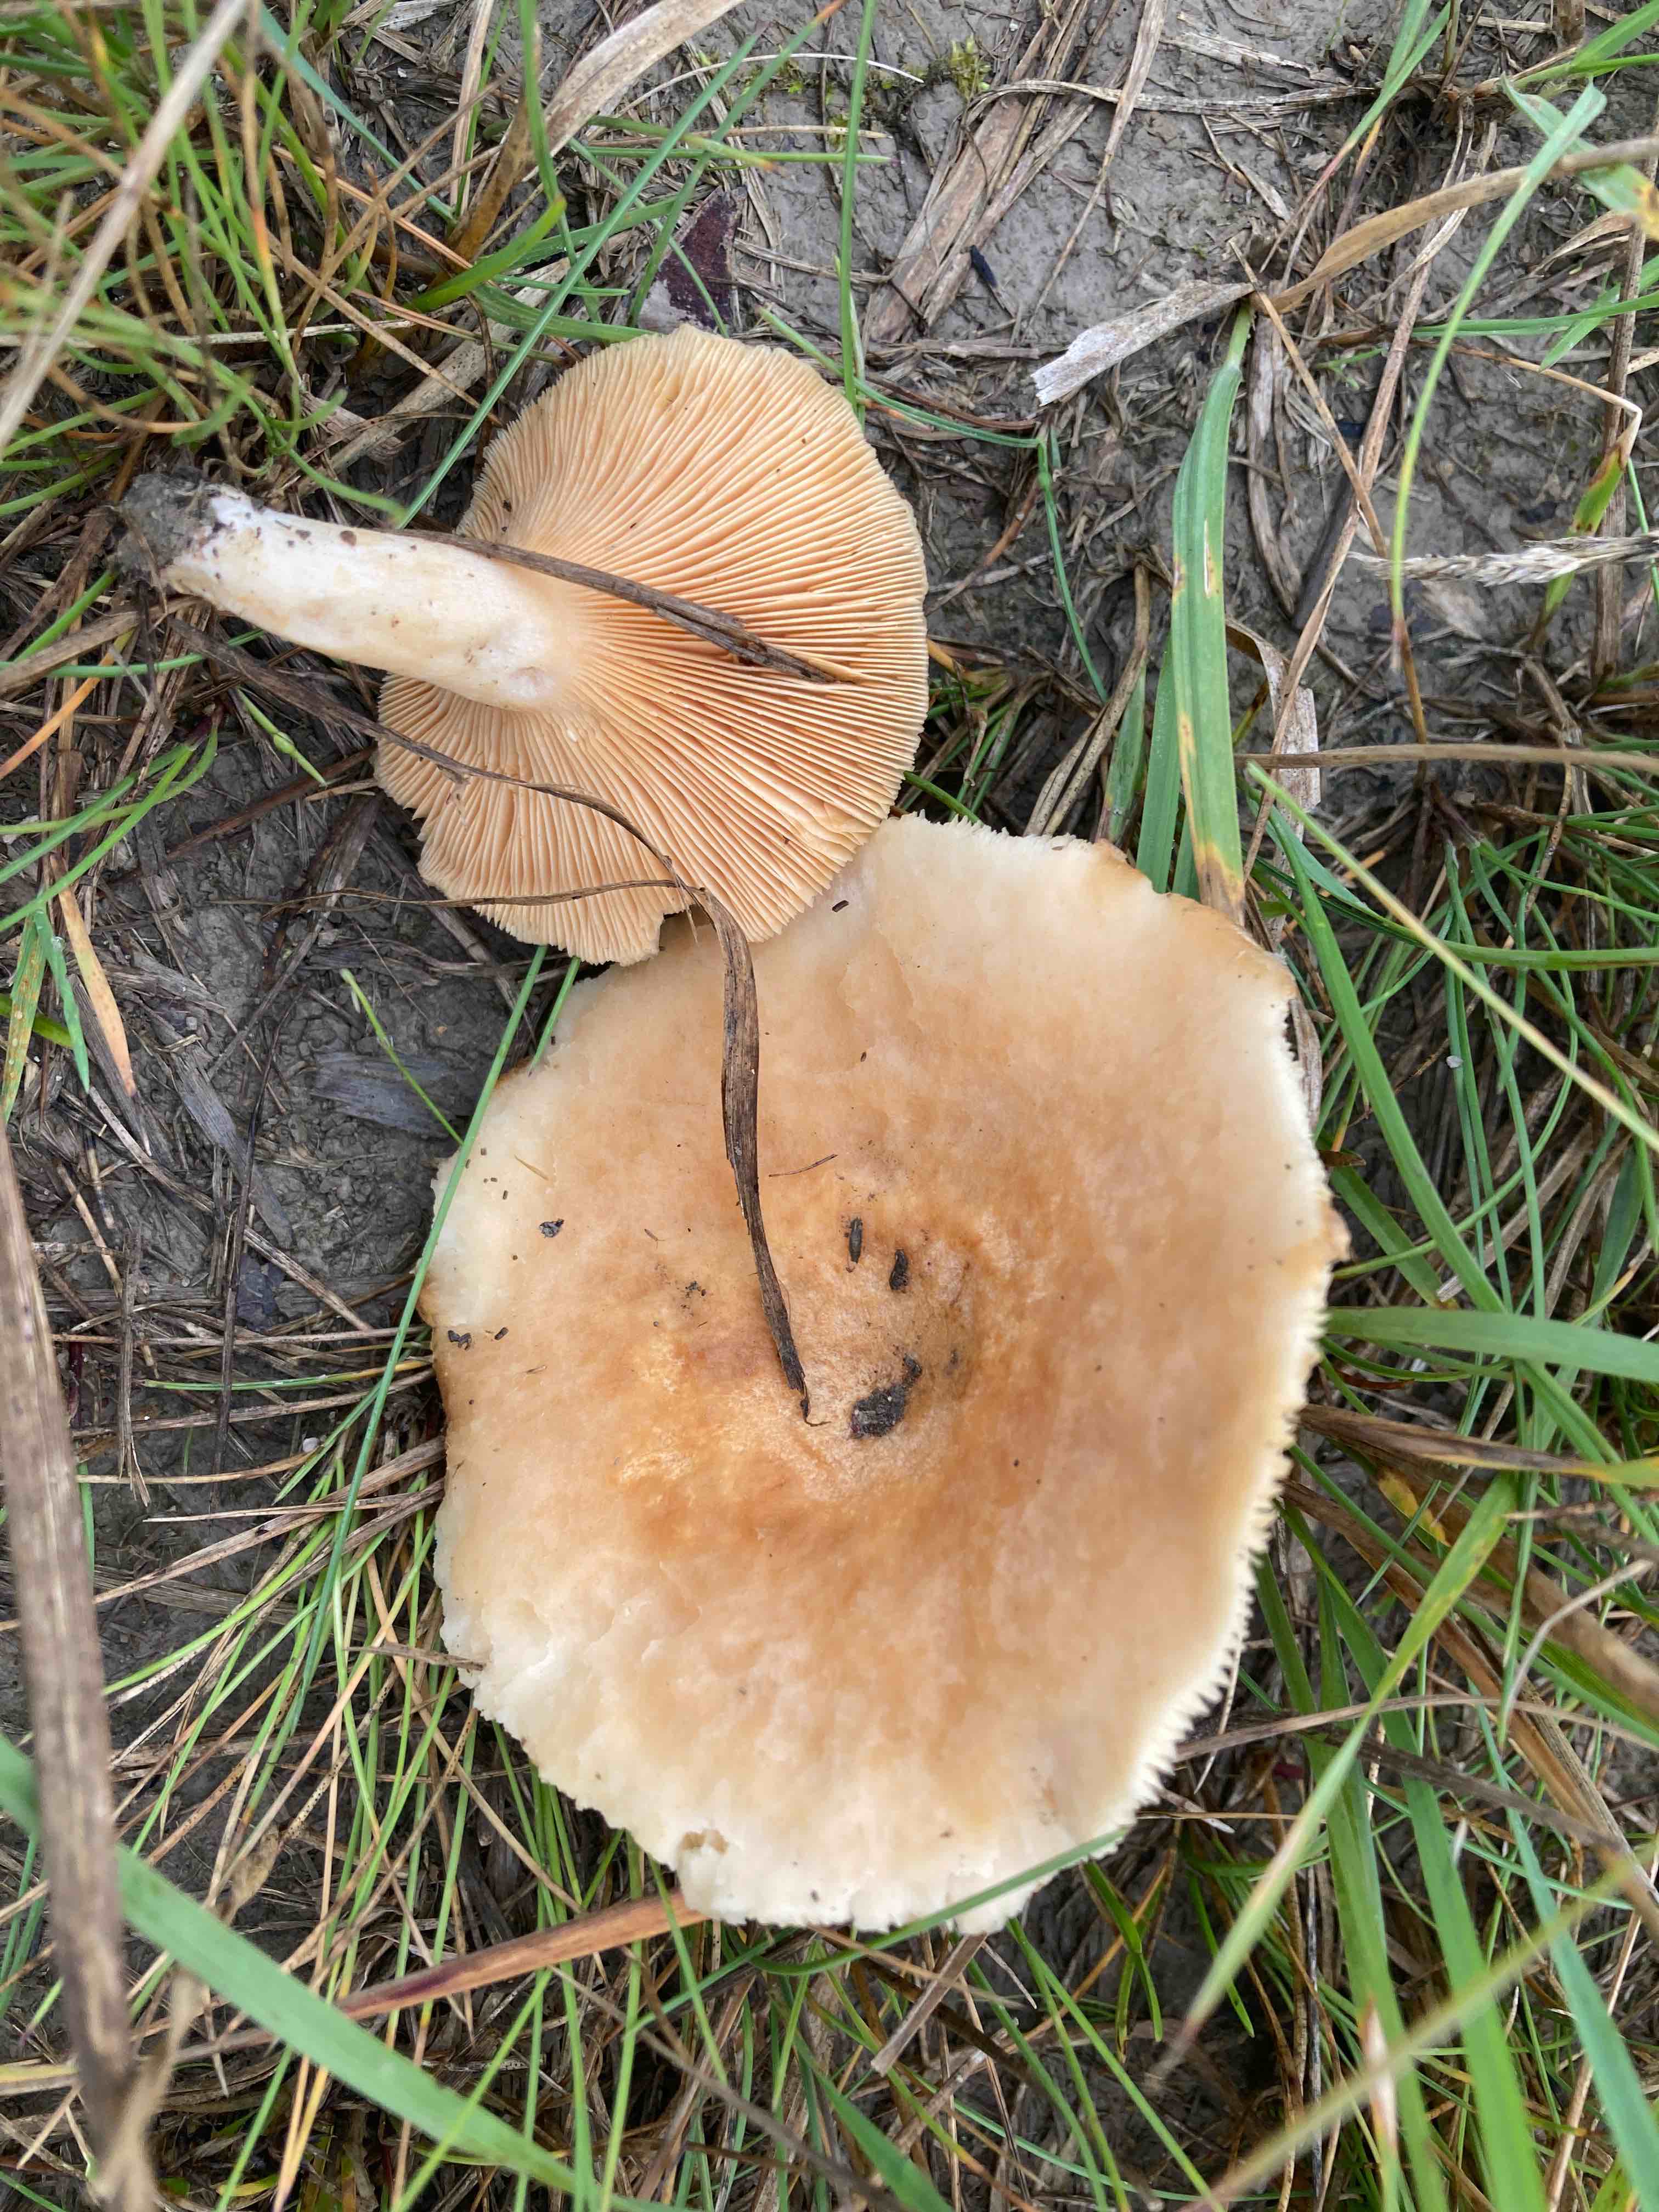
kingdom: Fungi
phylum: Basidiomycota
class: Agaricomycetes
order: Russulales
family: Russulaceae
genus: Lactarius
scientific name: Lactarius pubescens
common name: dunet mælkehat
